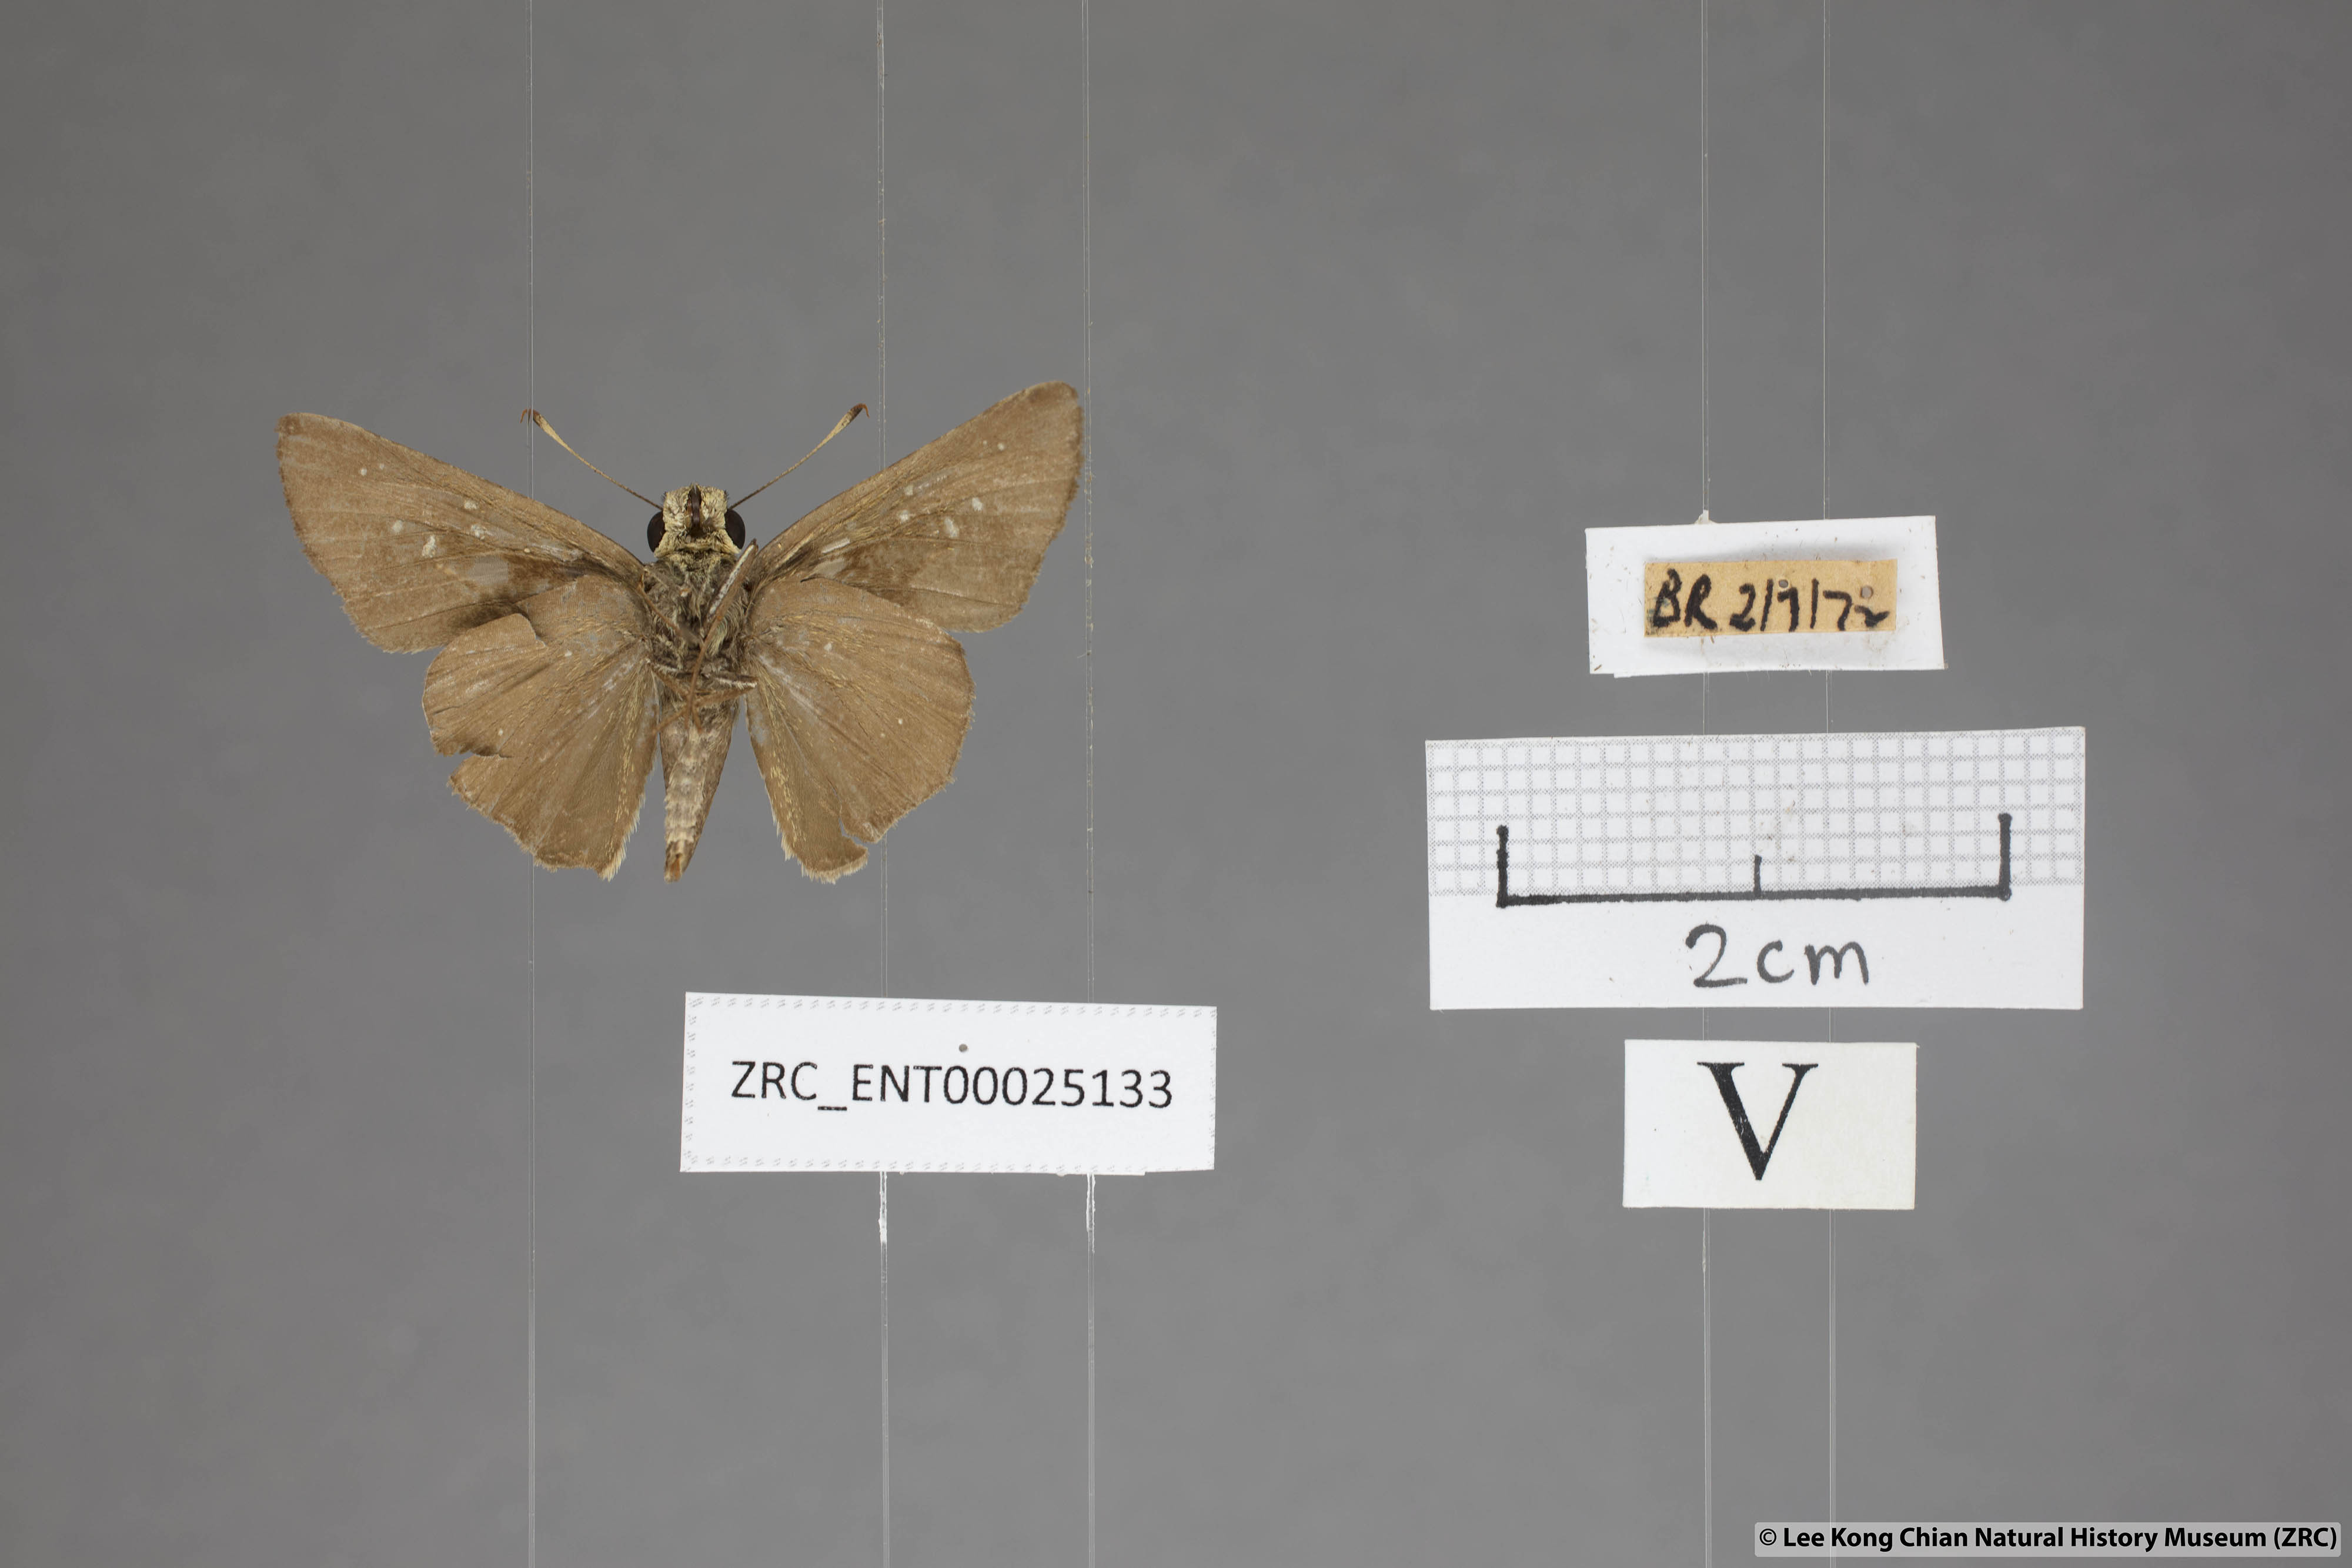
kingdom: Animalia
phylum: Arthropoda
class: Insecta
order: Lepidoptera
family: Hesperiidae
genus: Pelopidas
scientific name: Pelopidas agna
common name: Little branded swift
